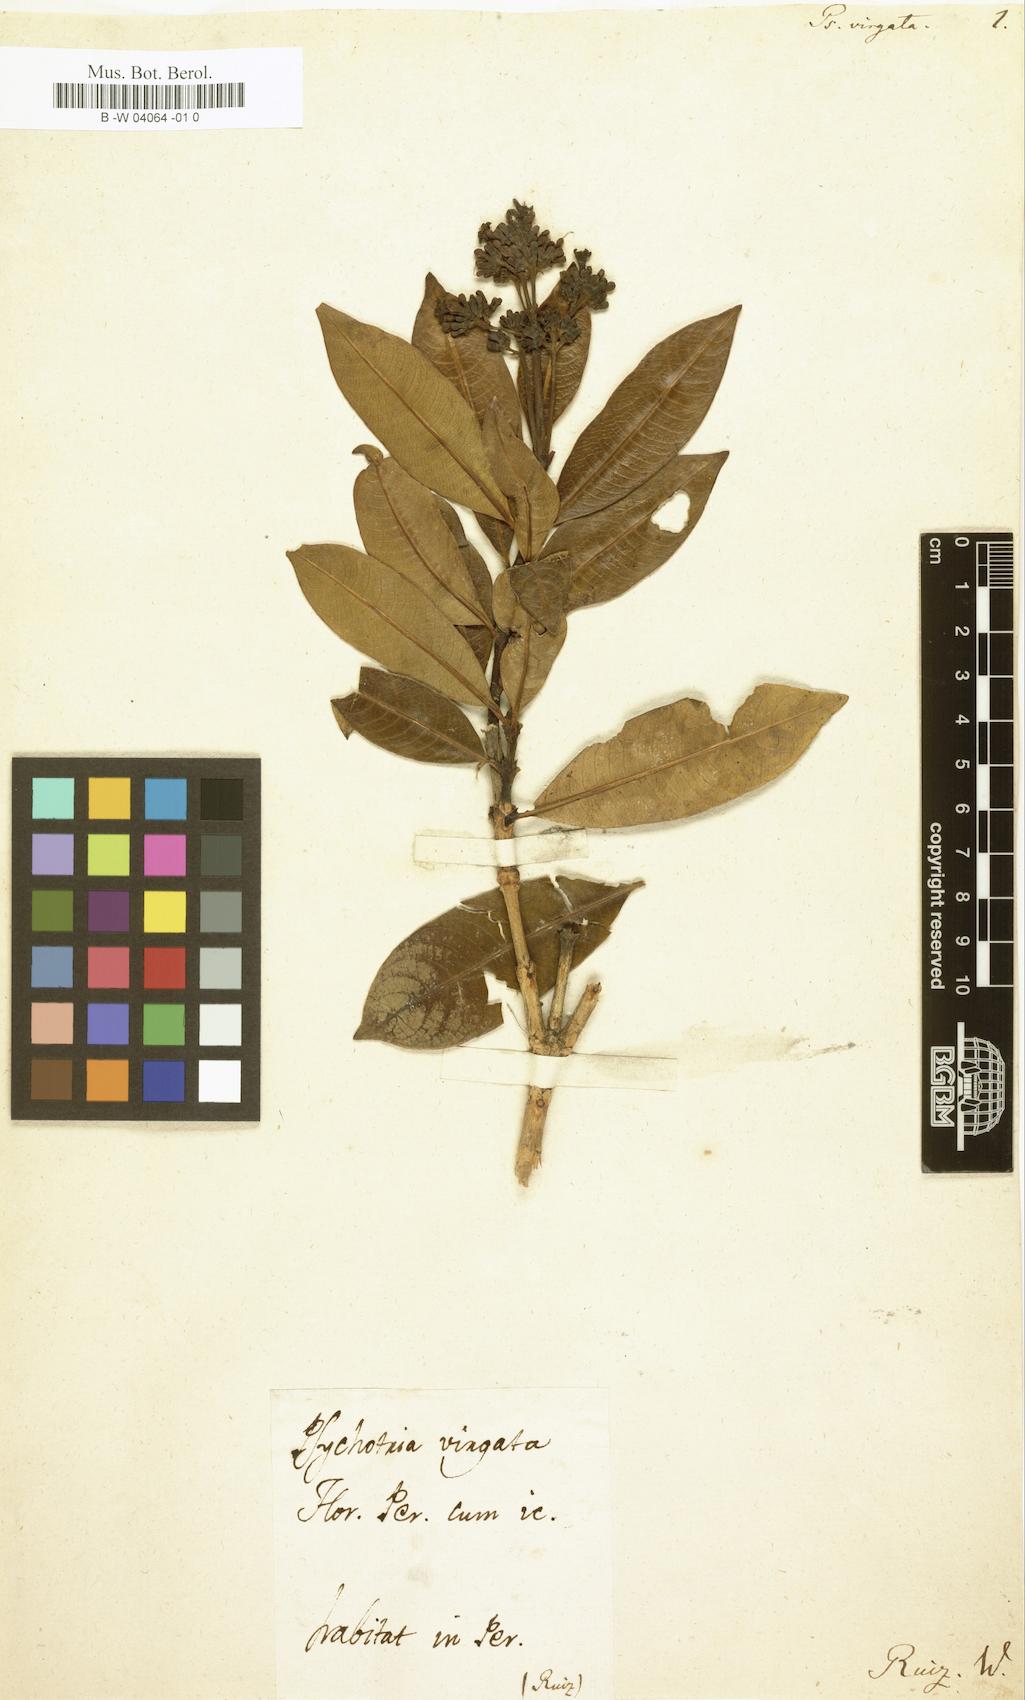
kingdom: Plantae
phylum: Tracheophyta
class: Magnoliopsida
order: Gentianales
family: Rubiaceae
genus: Palicourea
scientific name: Palicourea virgata
